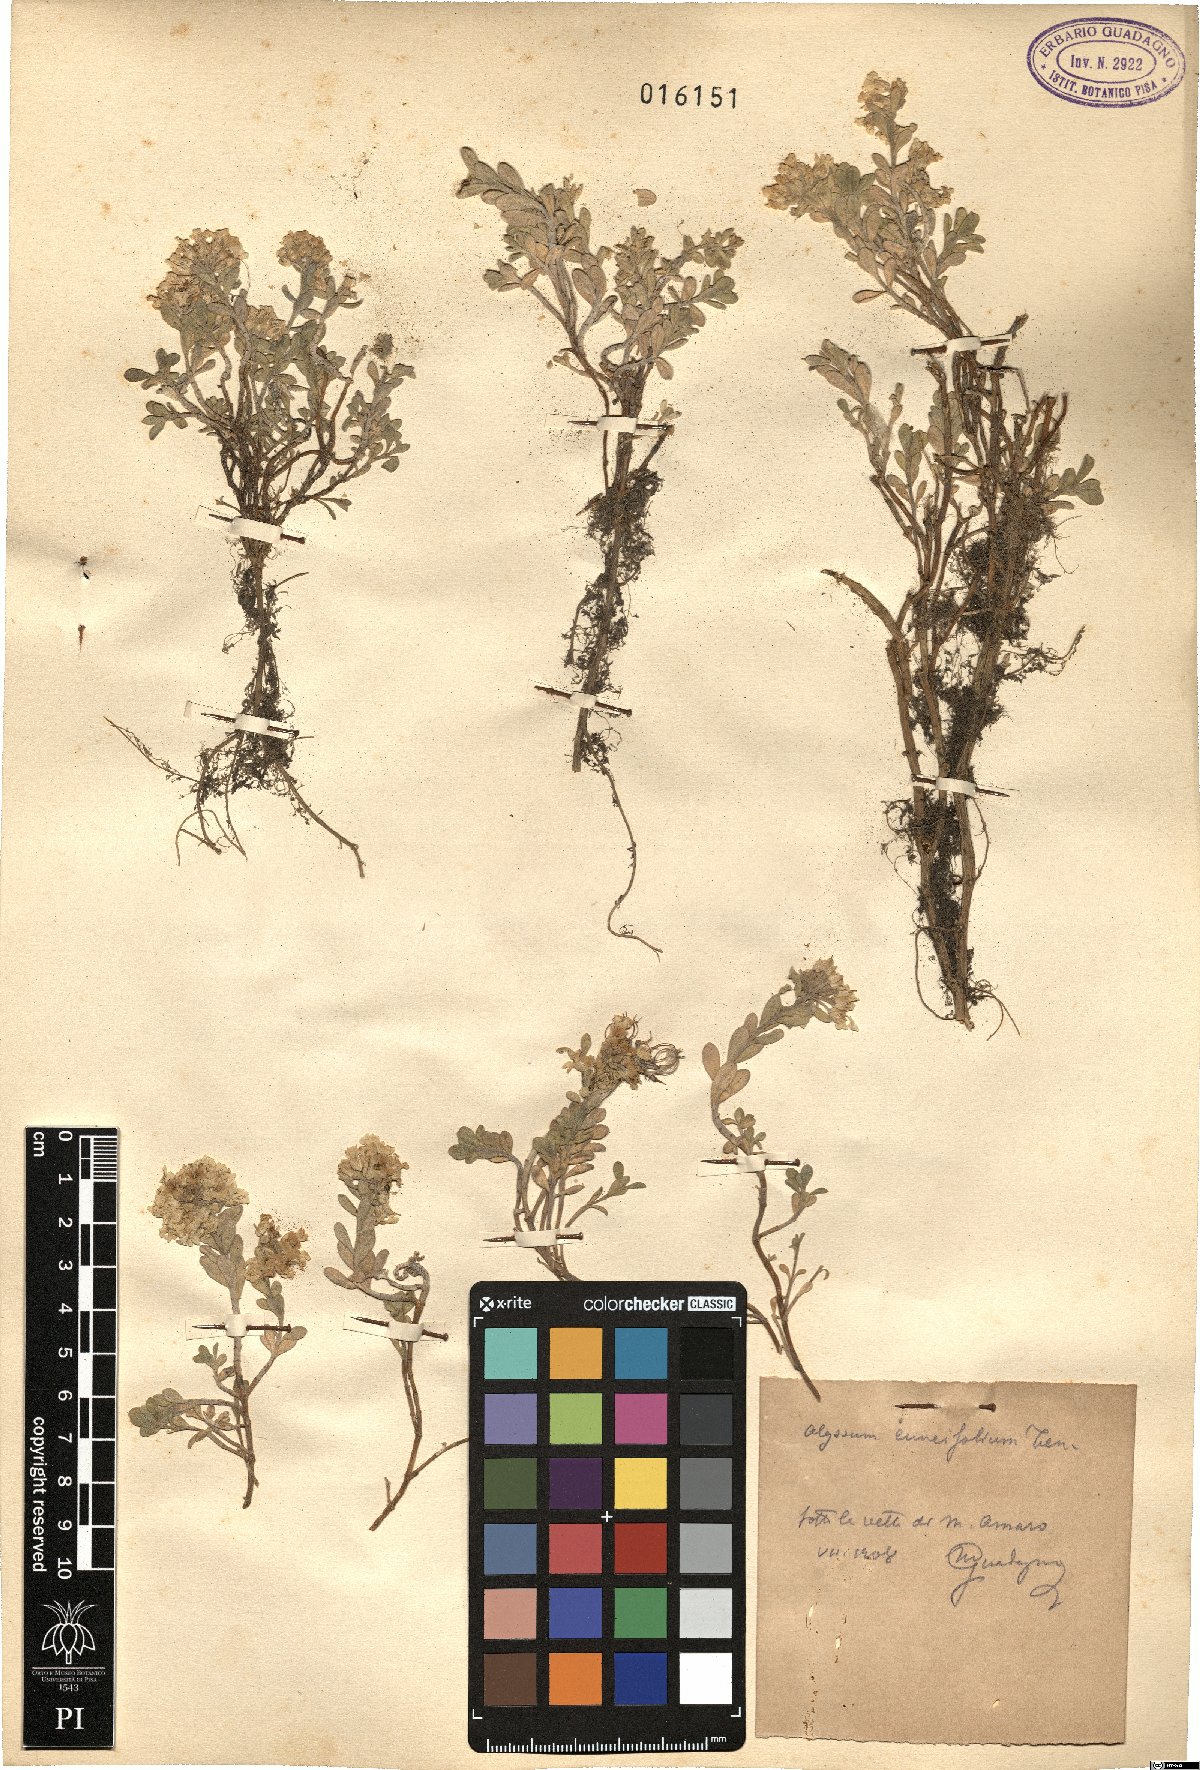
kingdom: Plantae
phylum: Tracheophyta
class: Magnoliopsida
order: Brassicales
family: Brassicaceae
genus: Alyssum
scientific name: Alyssum cuneifolium
